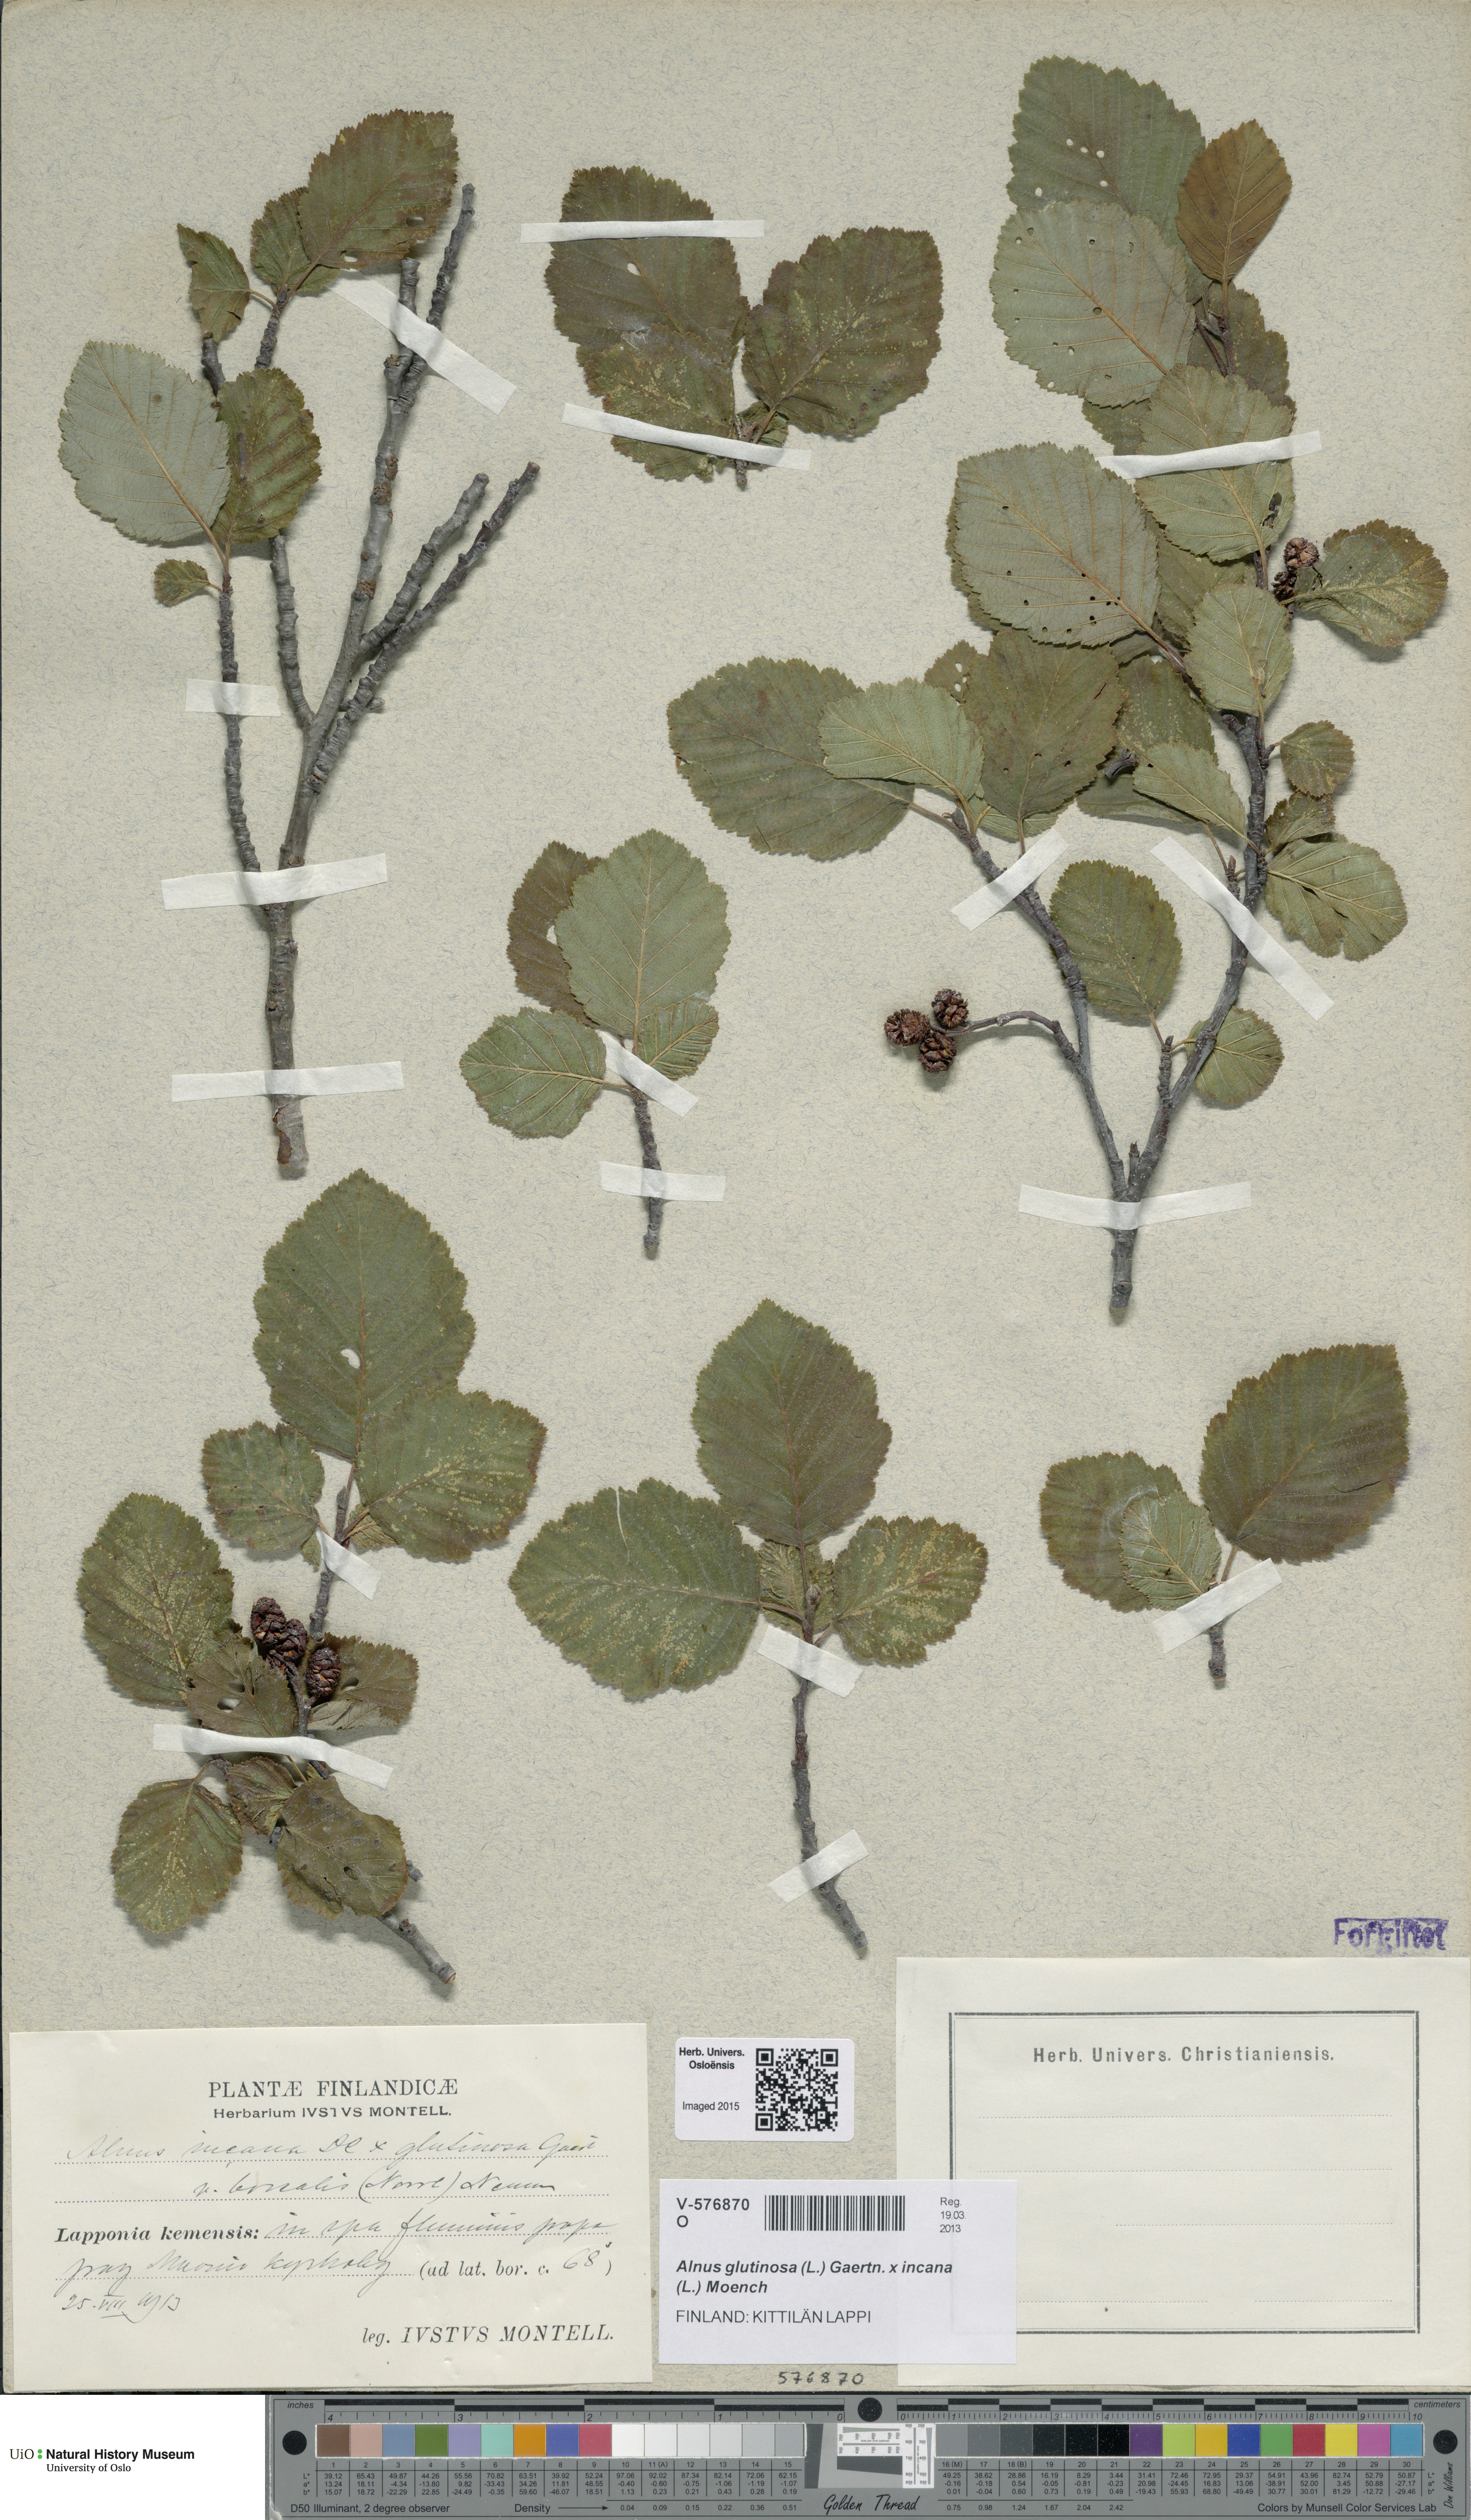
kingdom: Plantae
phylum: Tracheophyta
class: Magnoliopsida
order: Fagales
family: Betulaceae
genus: Alnus
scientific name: Alnus
